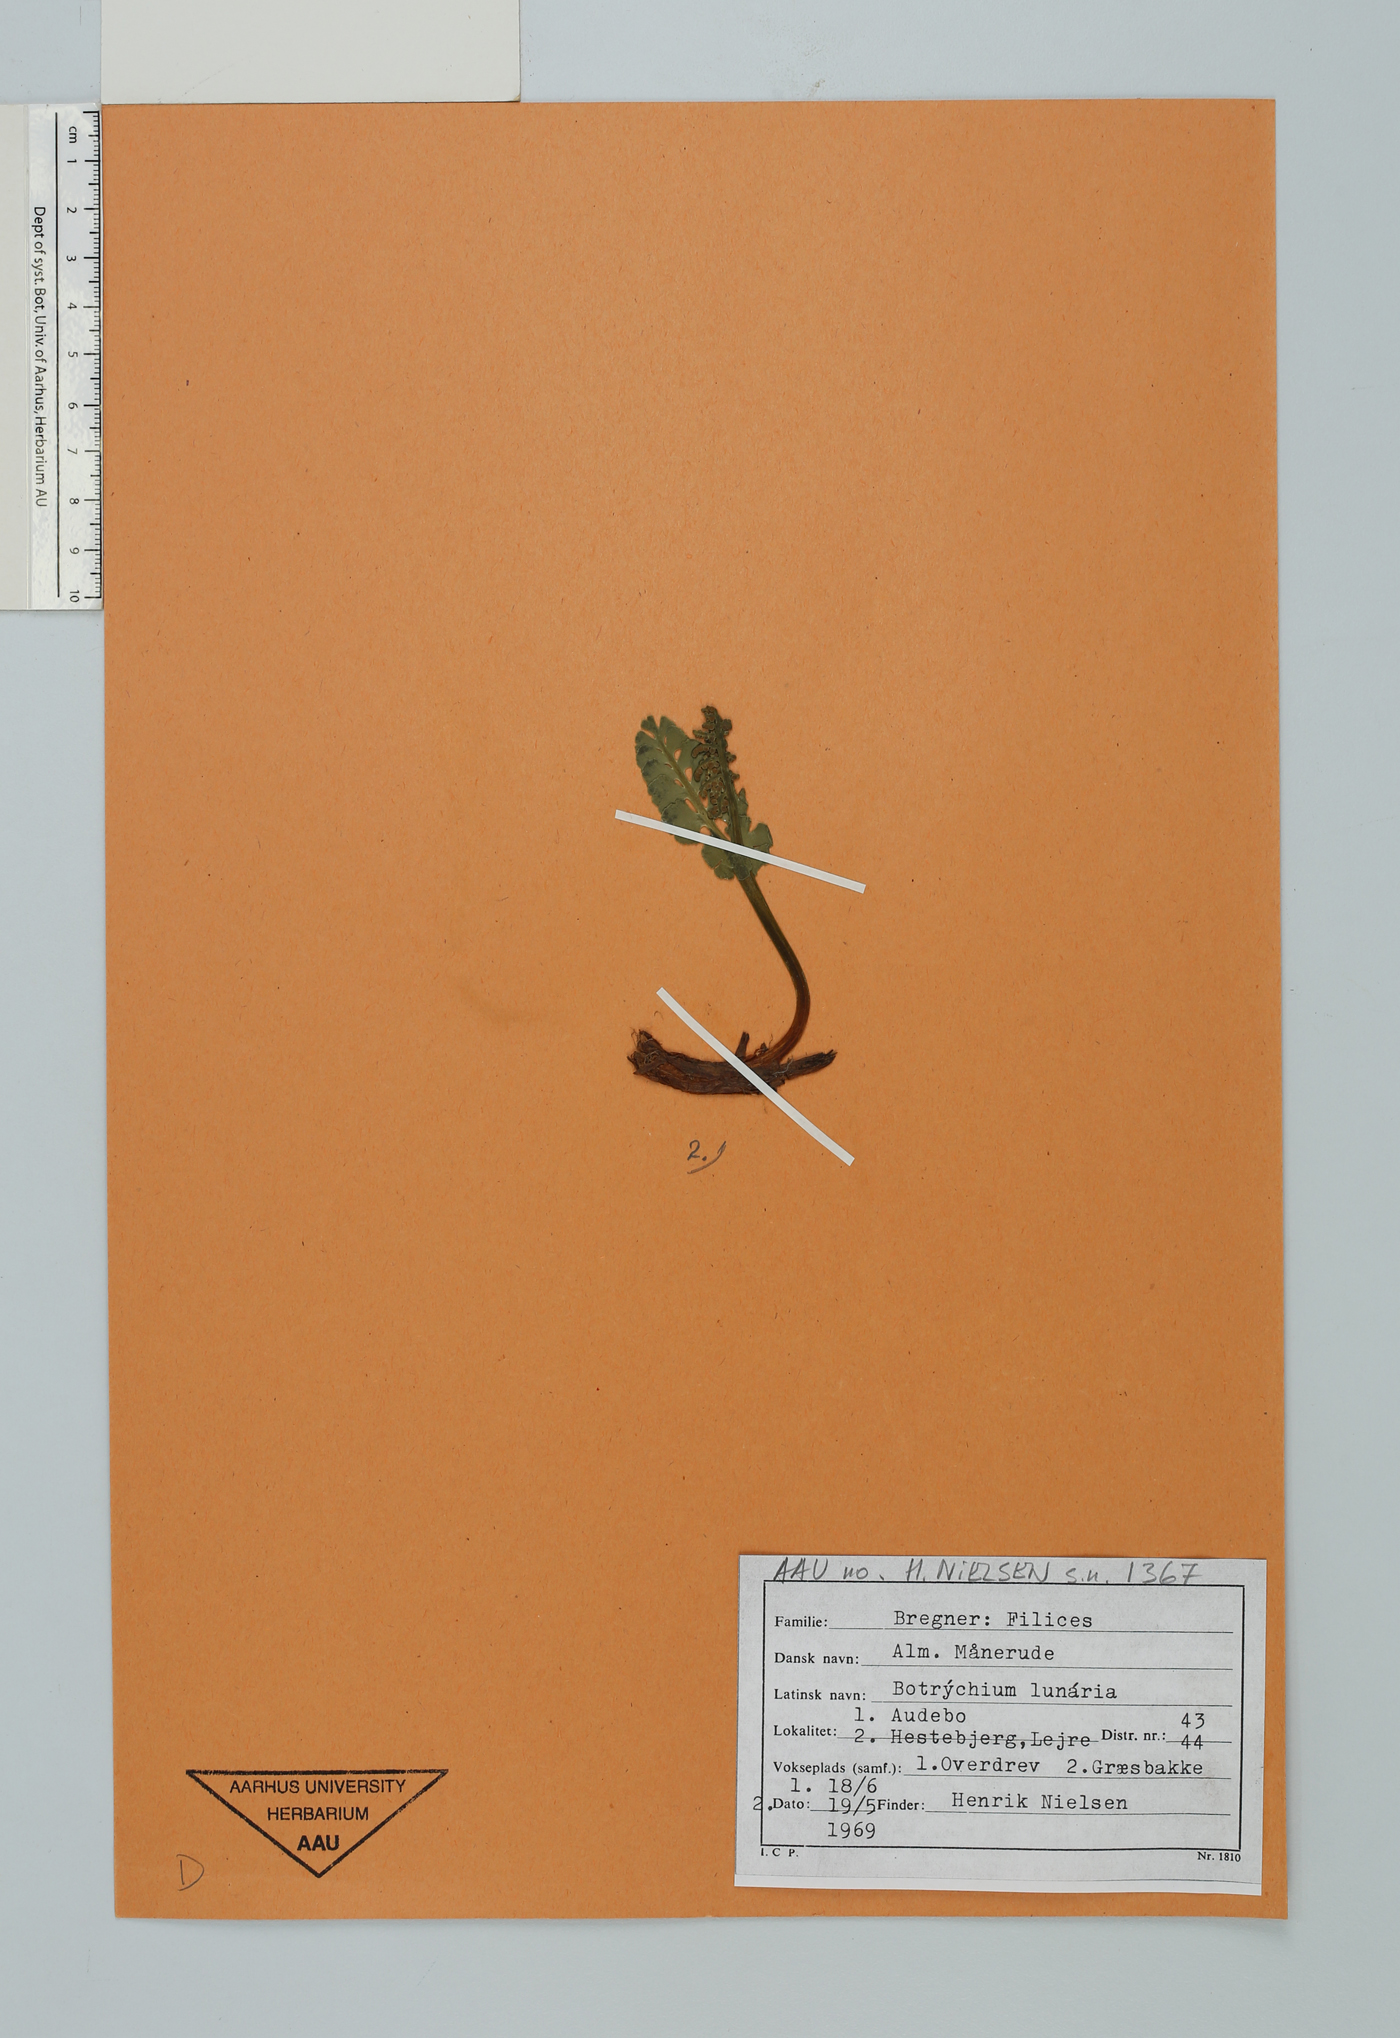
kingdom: Plantae
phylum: Tracheophyta
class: Polypodiopsida
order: Ophioglossales
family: Ophioglossaceae
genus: Botrychium
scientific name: Botrychium lunaria
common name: Moonwort
